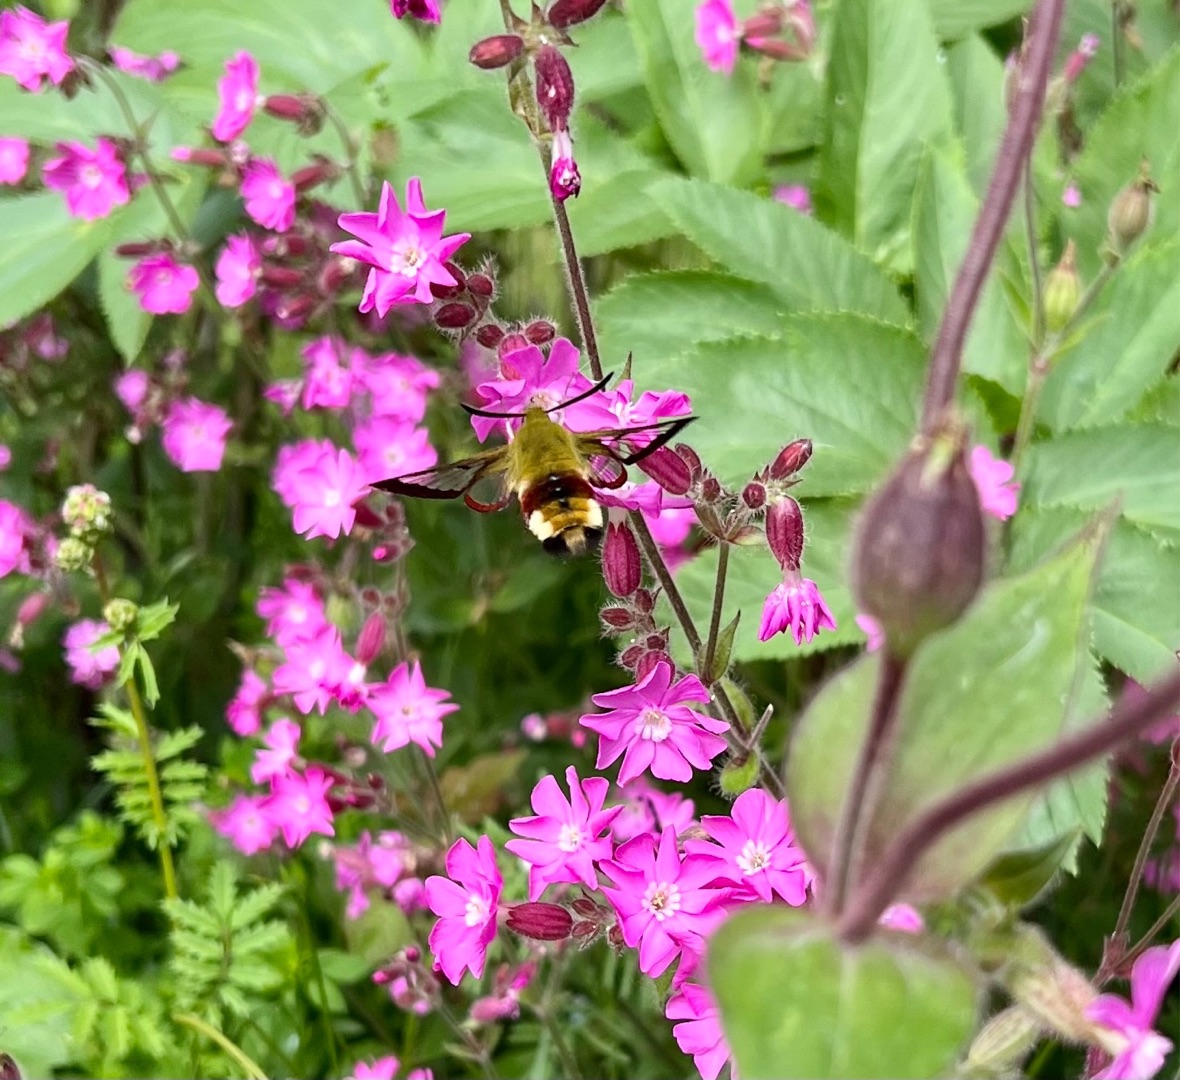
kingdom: Animalia
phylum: Arthropoda
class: Insecta
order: Lepidoptera
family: Sphingidae
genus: Hemaris
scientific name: Hemaris fuciformis
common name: Bredrandet humlebisværmer
